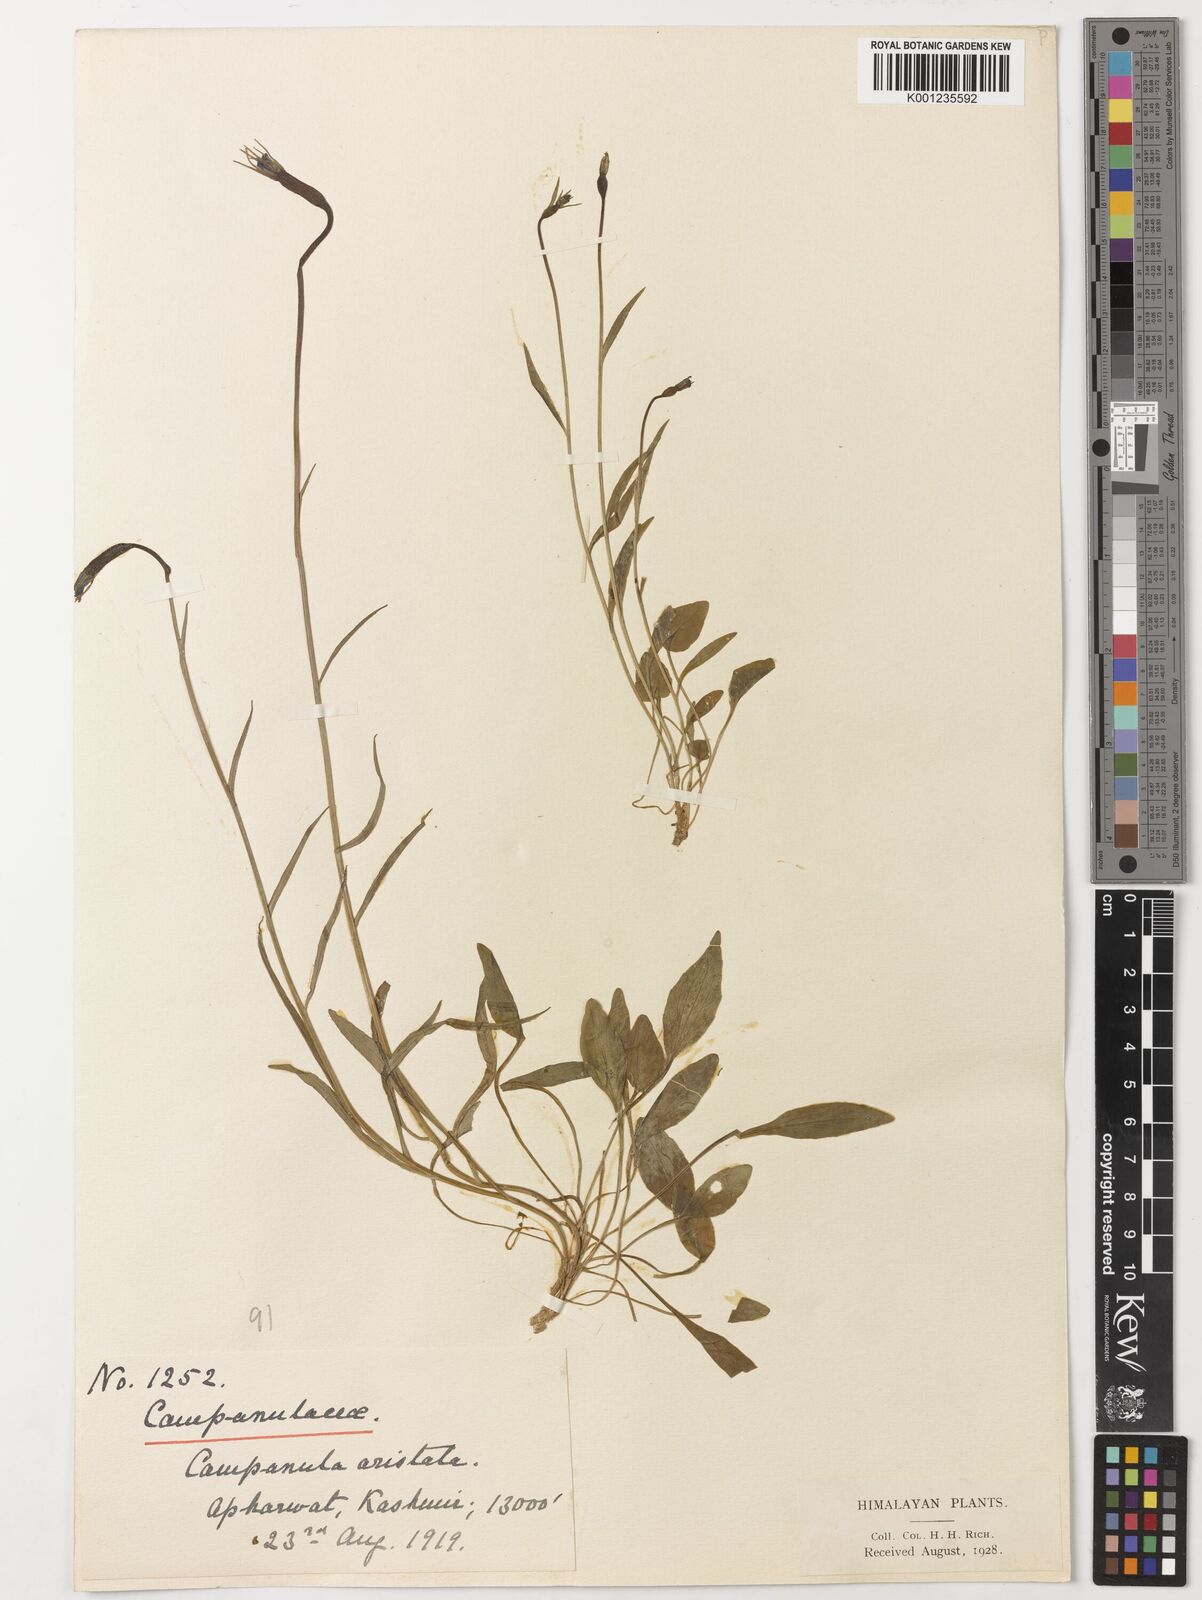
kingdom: Plantae
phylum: Tracheophyta
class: Magnoliopsida
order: Asterales
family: Campanulaceae
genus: Campanula
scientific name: Campanula aristata
